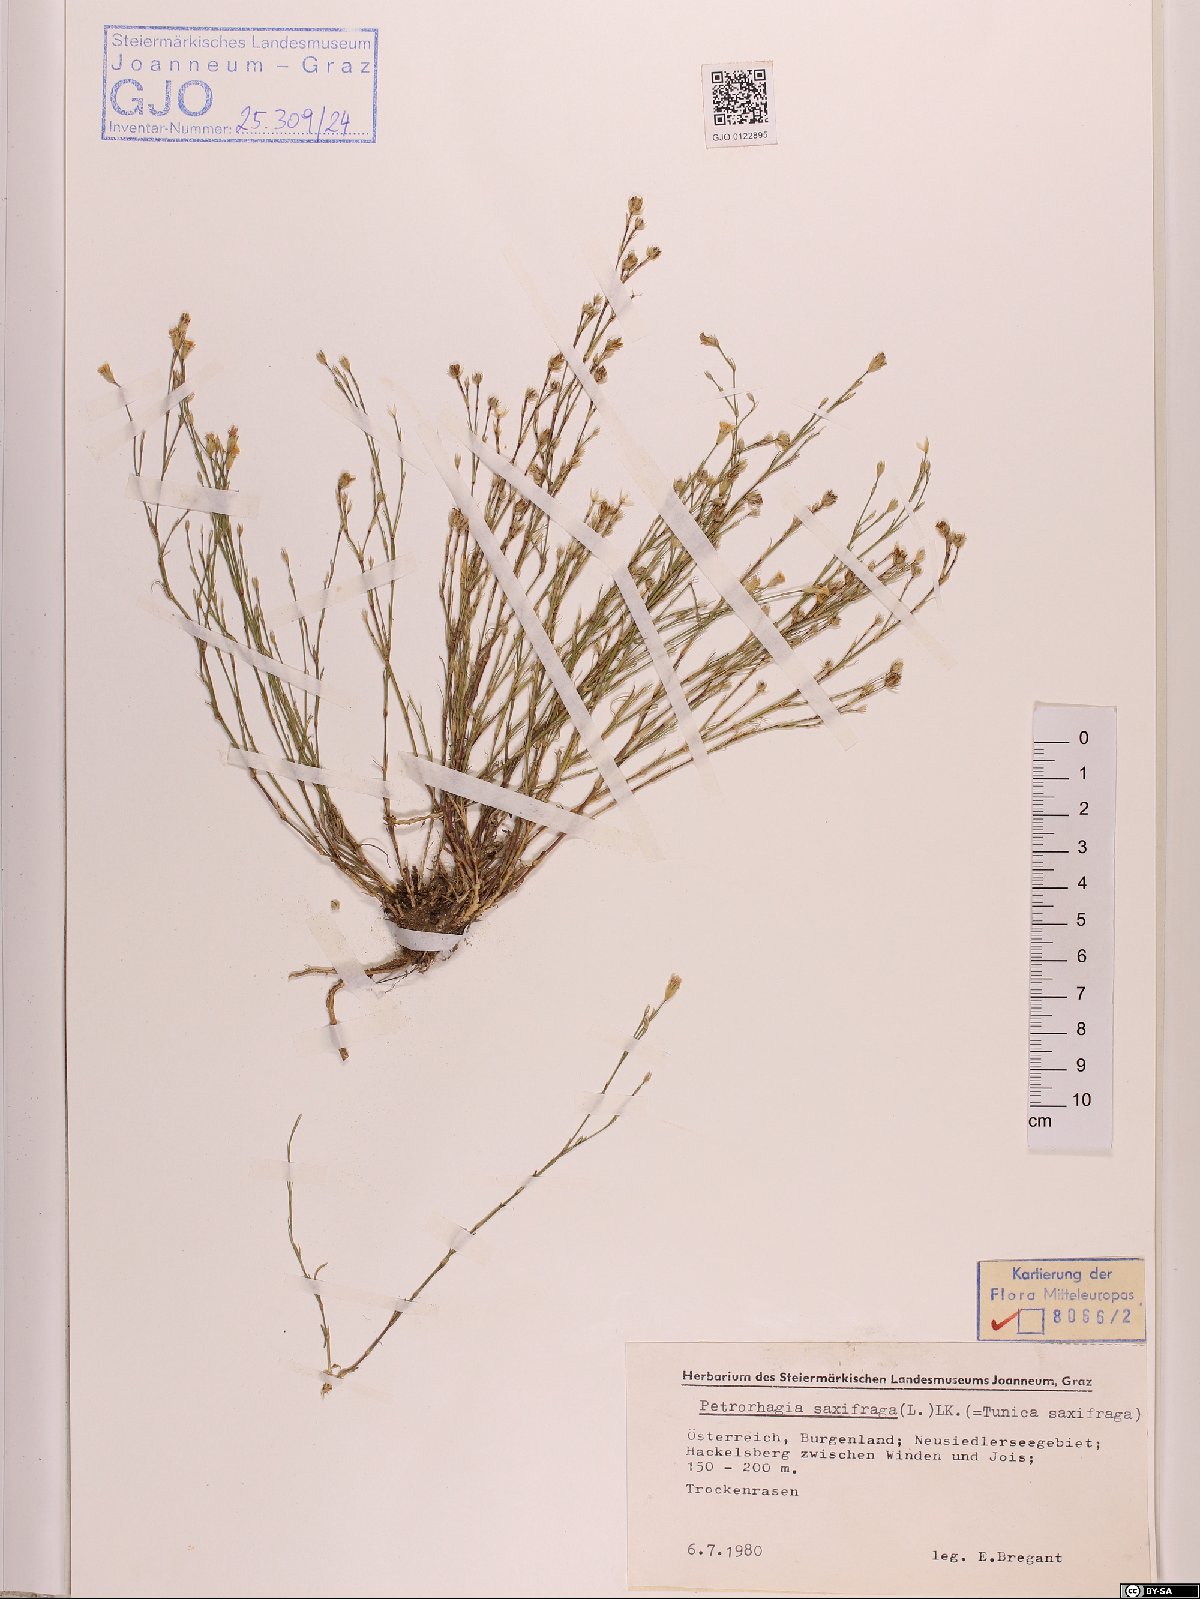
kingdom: Plantae
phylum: Tracheophyta
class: Magnoliopsida
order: Caryophyllales
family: Caryophyllaceae
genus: Petrorhagia
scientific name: Petrorhagia saxifraga
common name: Tunicflower
